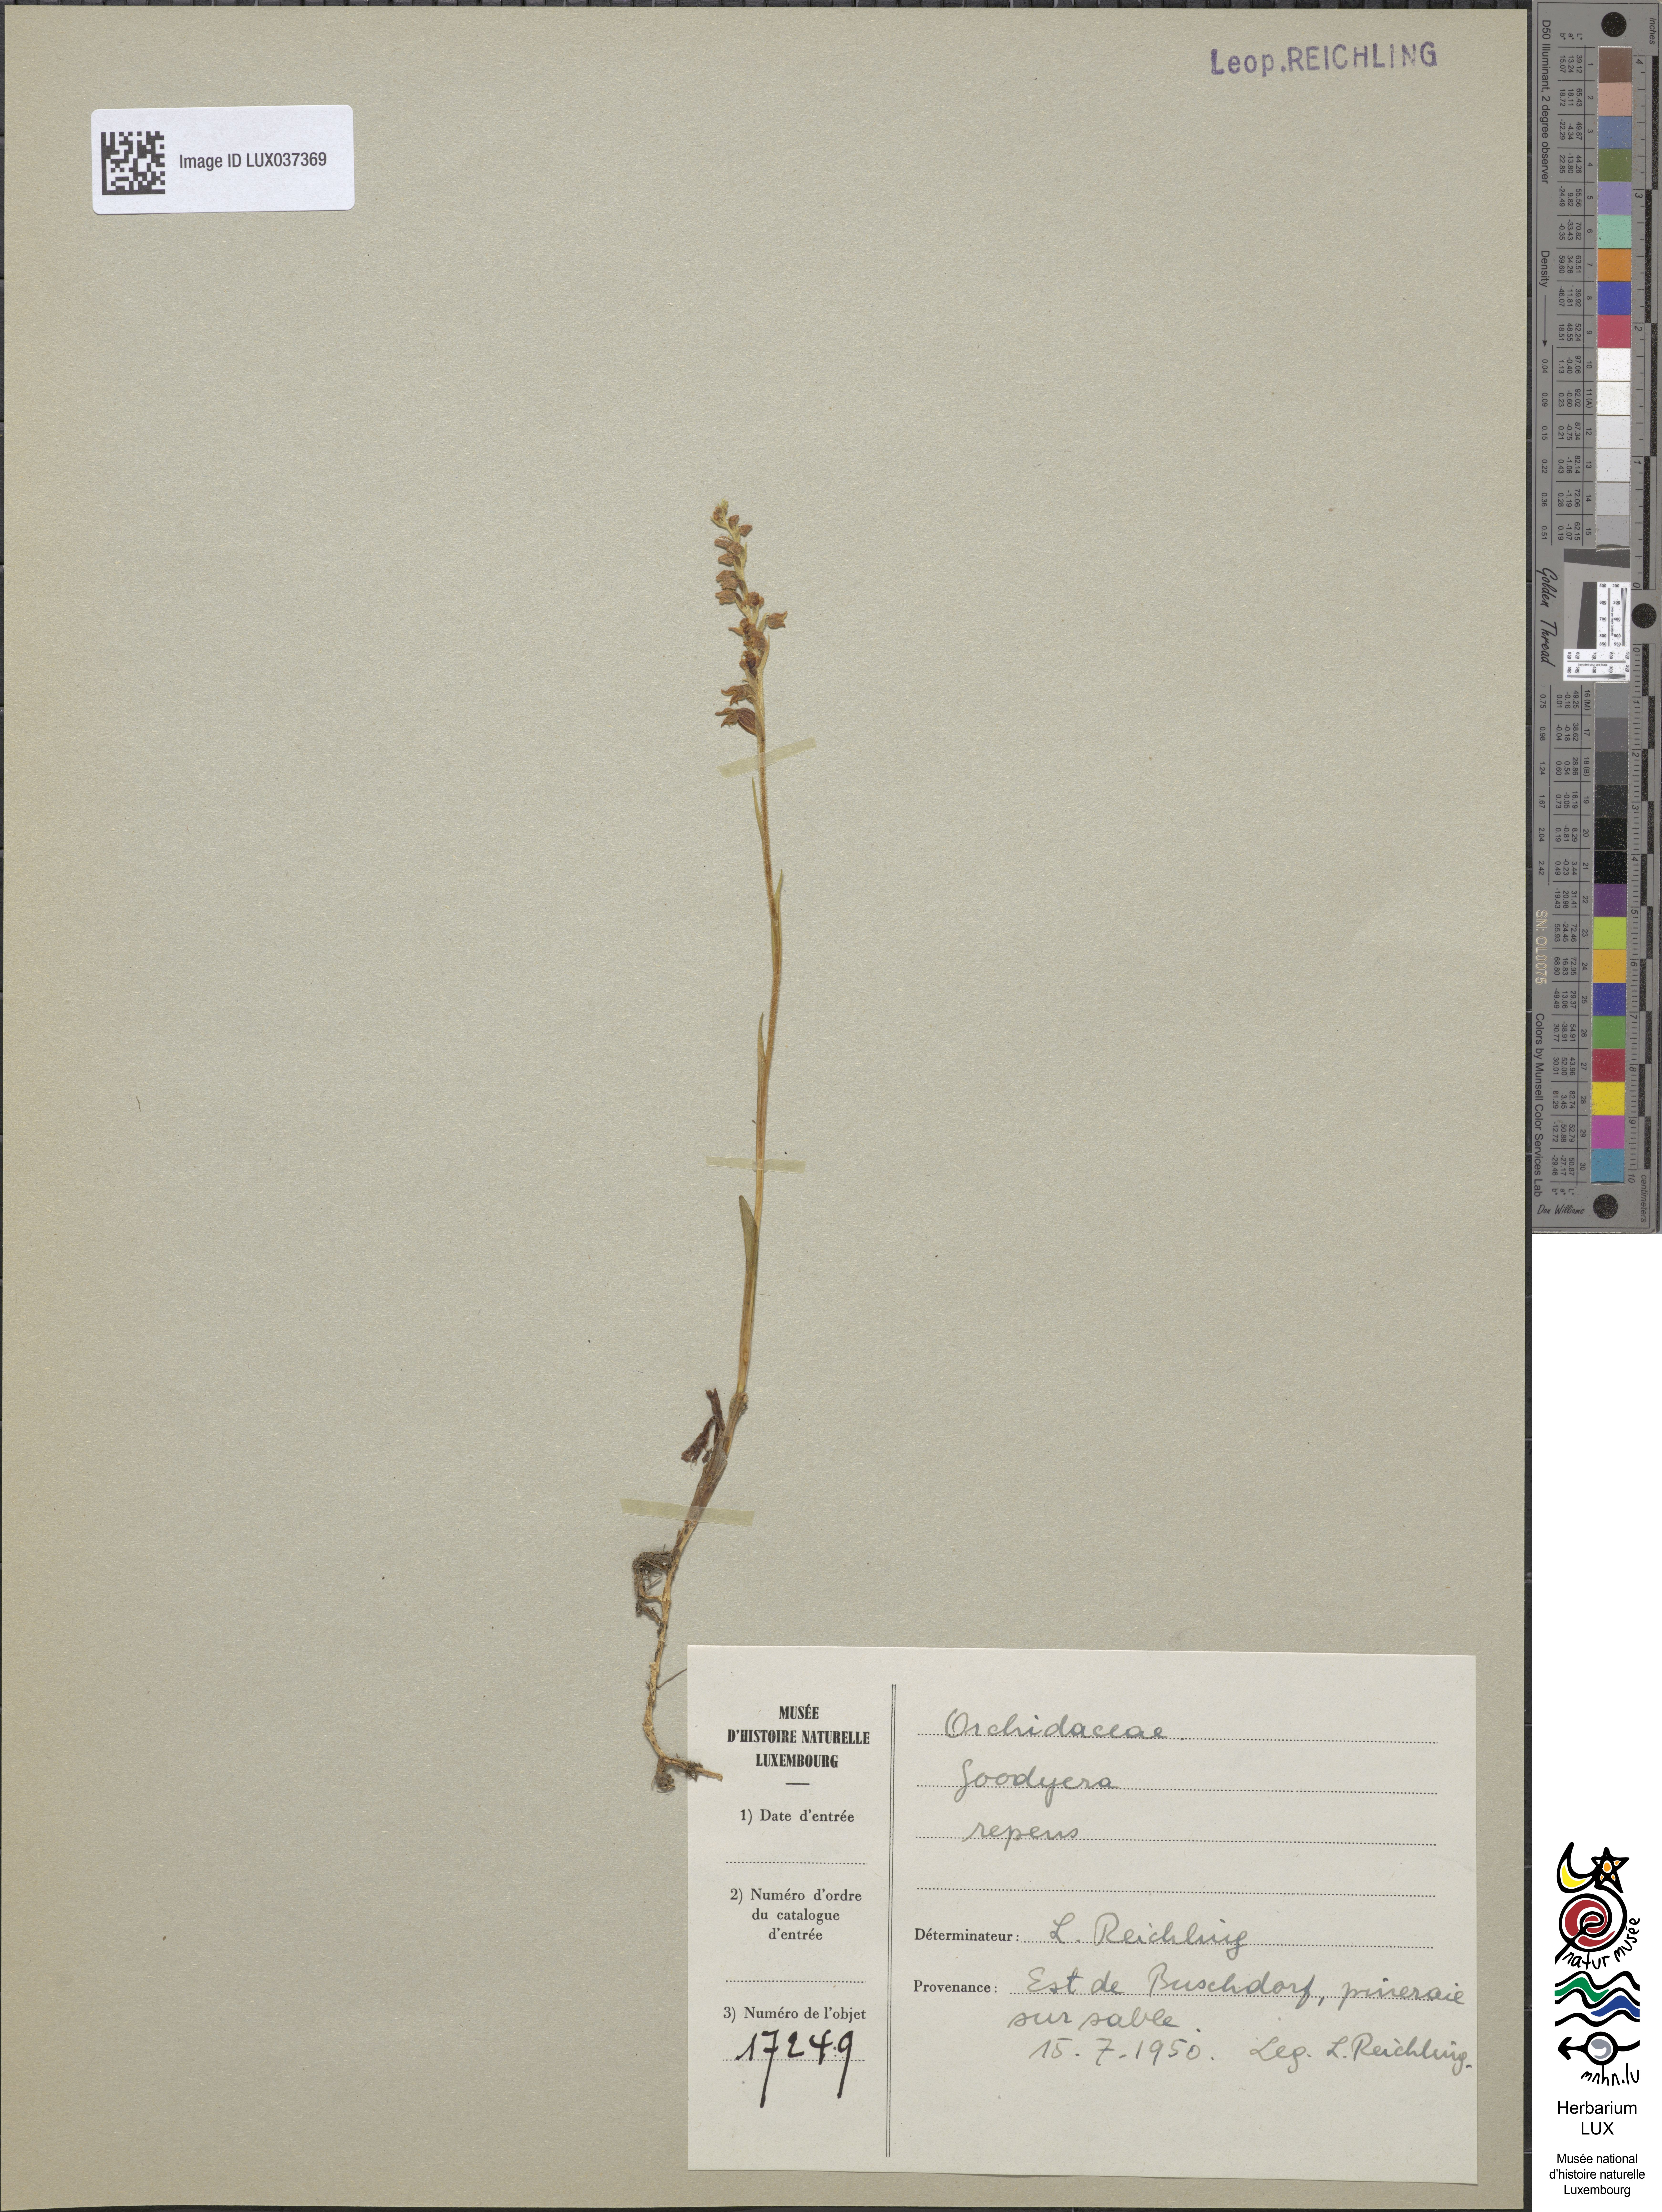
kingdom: Plantae
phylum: Tracheophyta
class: Liliopsida
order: Asparagales
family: Orchidaceae
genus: Goodyera
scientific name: Goodyera repens
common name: Creeping lady's-tresses
